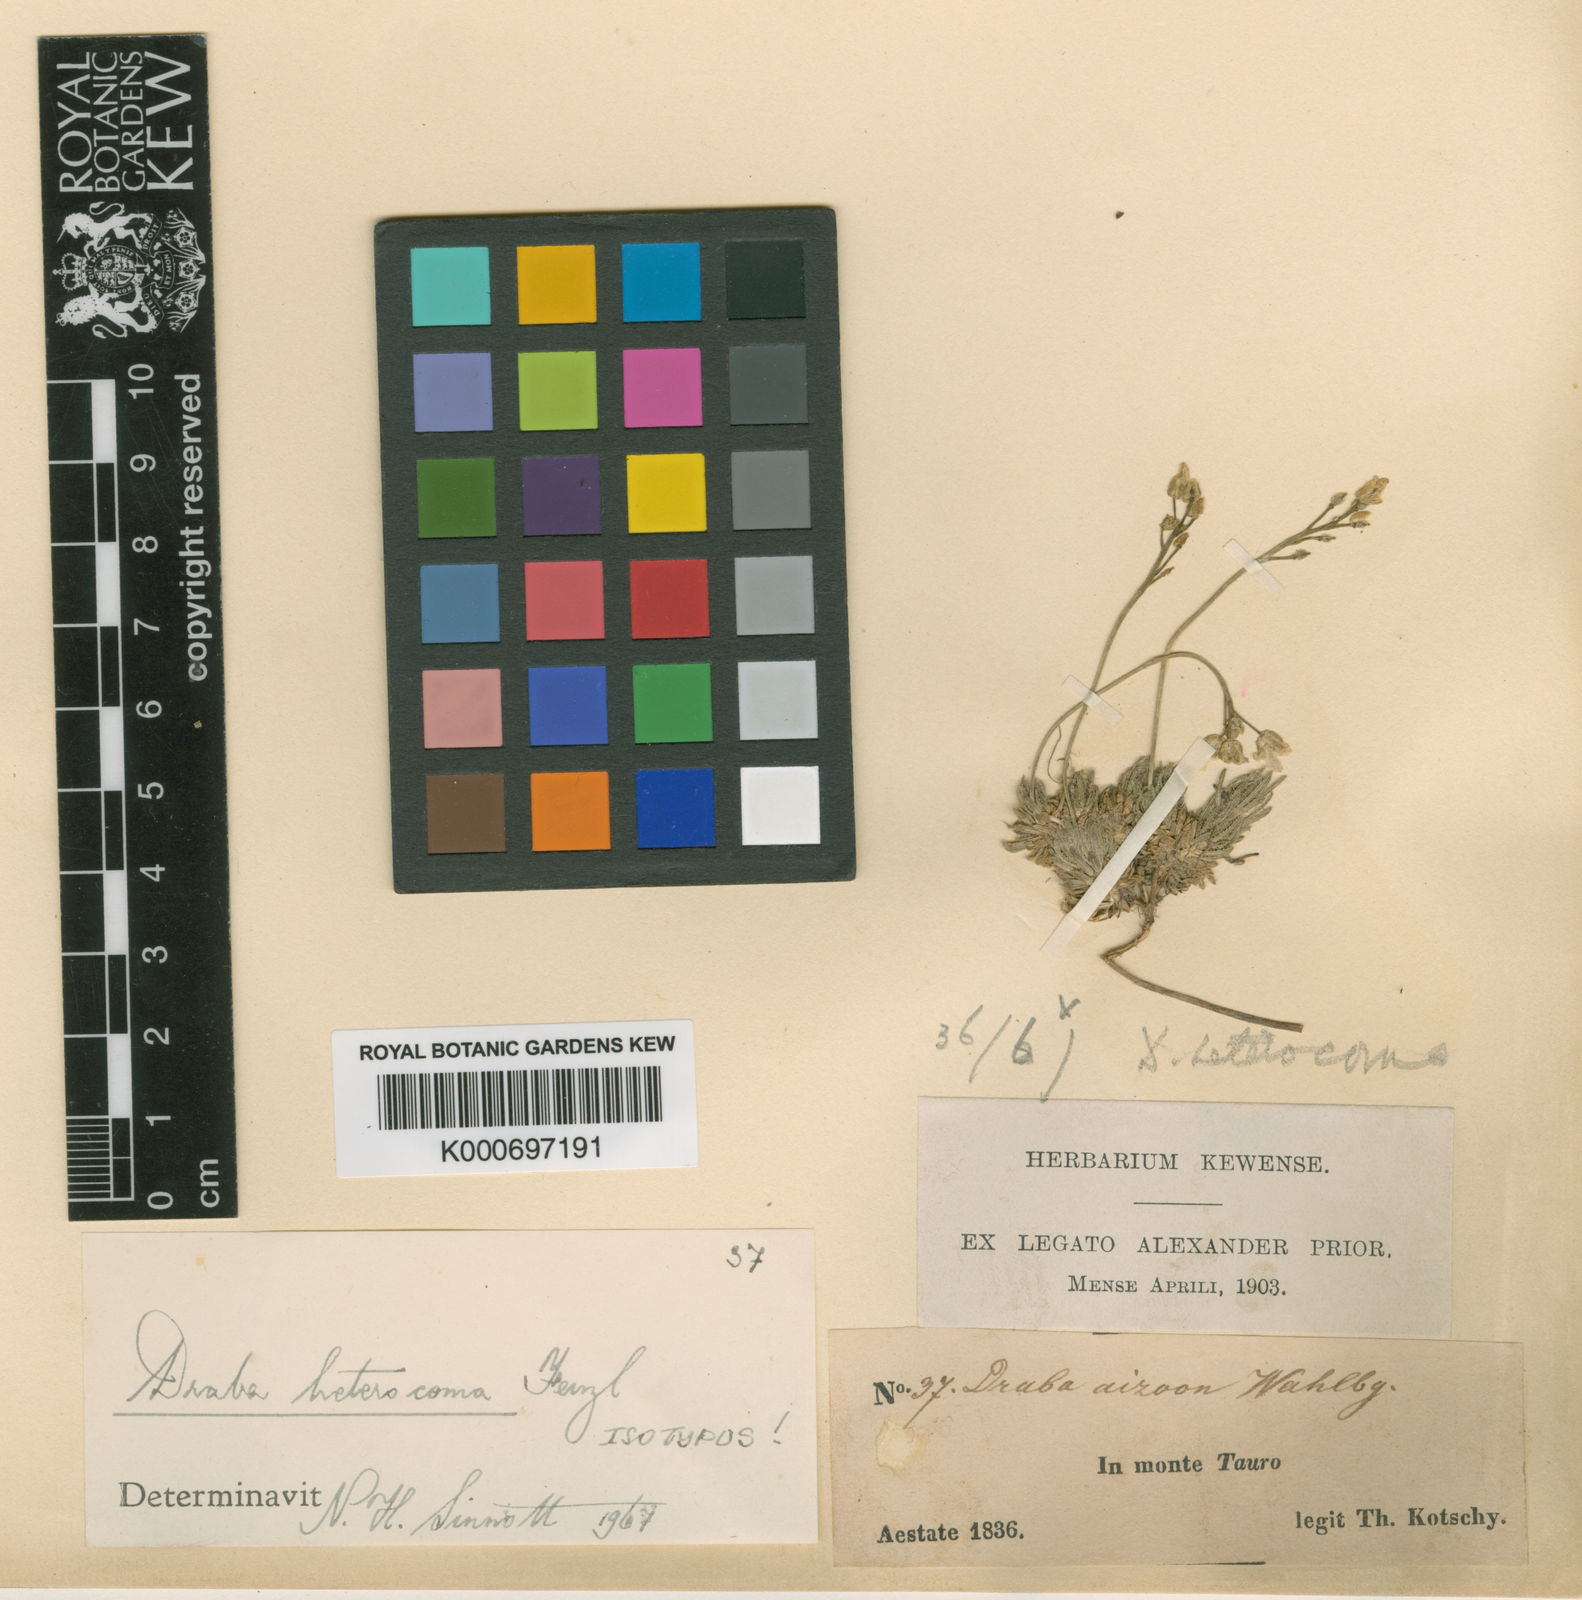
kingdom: Plantae
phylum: Tracheophyta
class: Magnoliopsida
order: Brassicales
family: Brassicaceae
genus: Draba
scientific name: Draba bruniifolia
